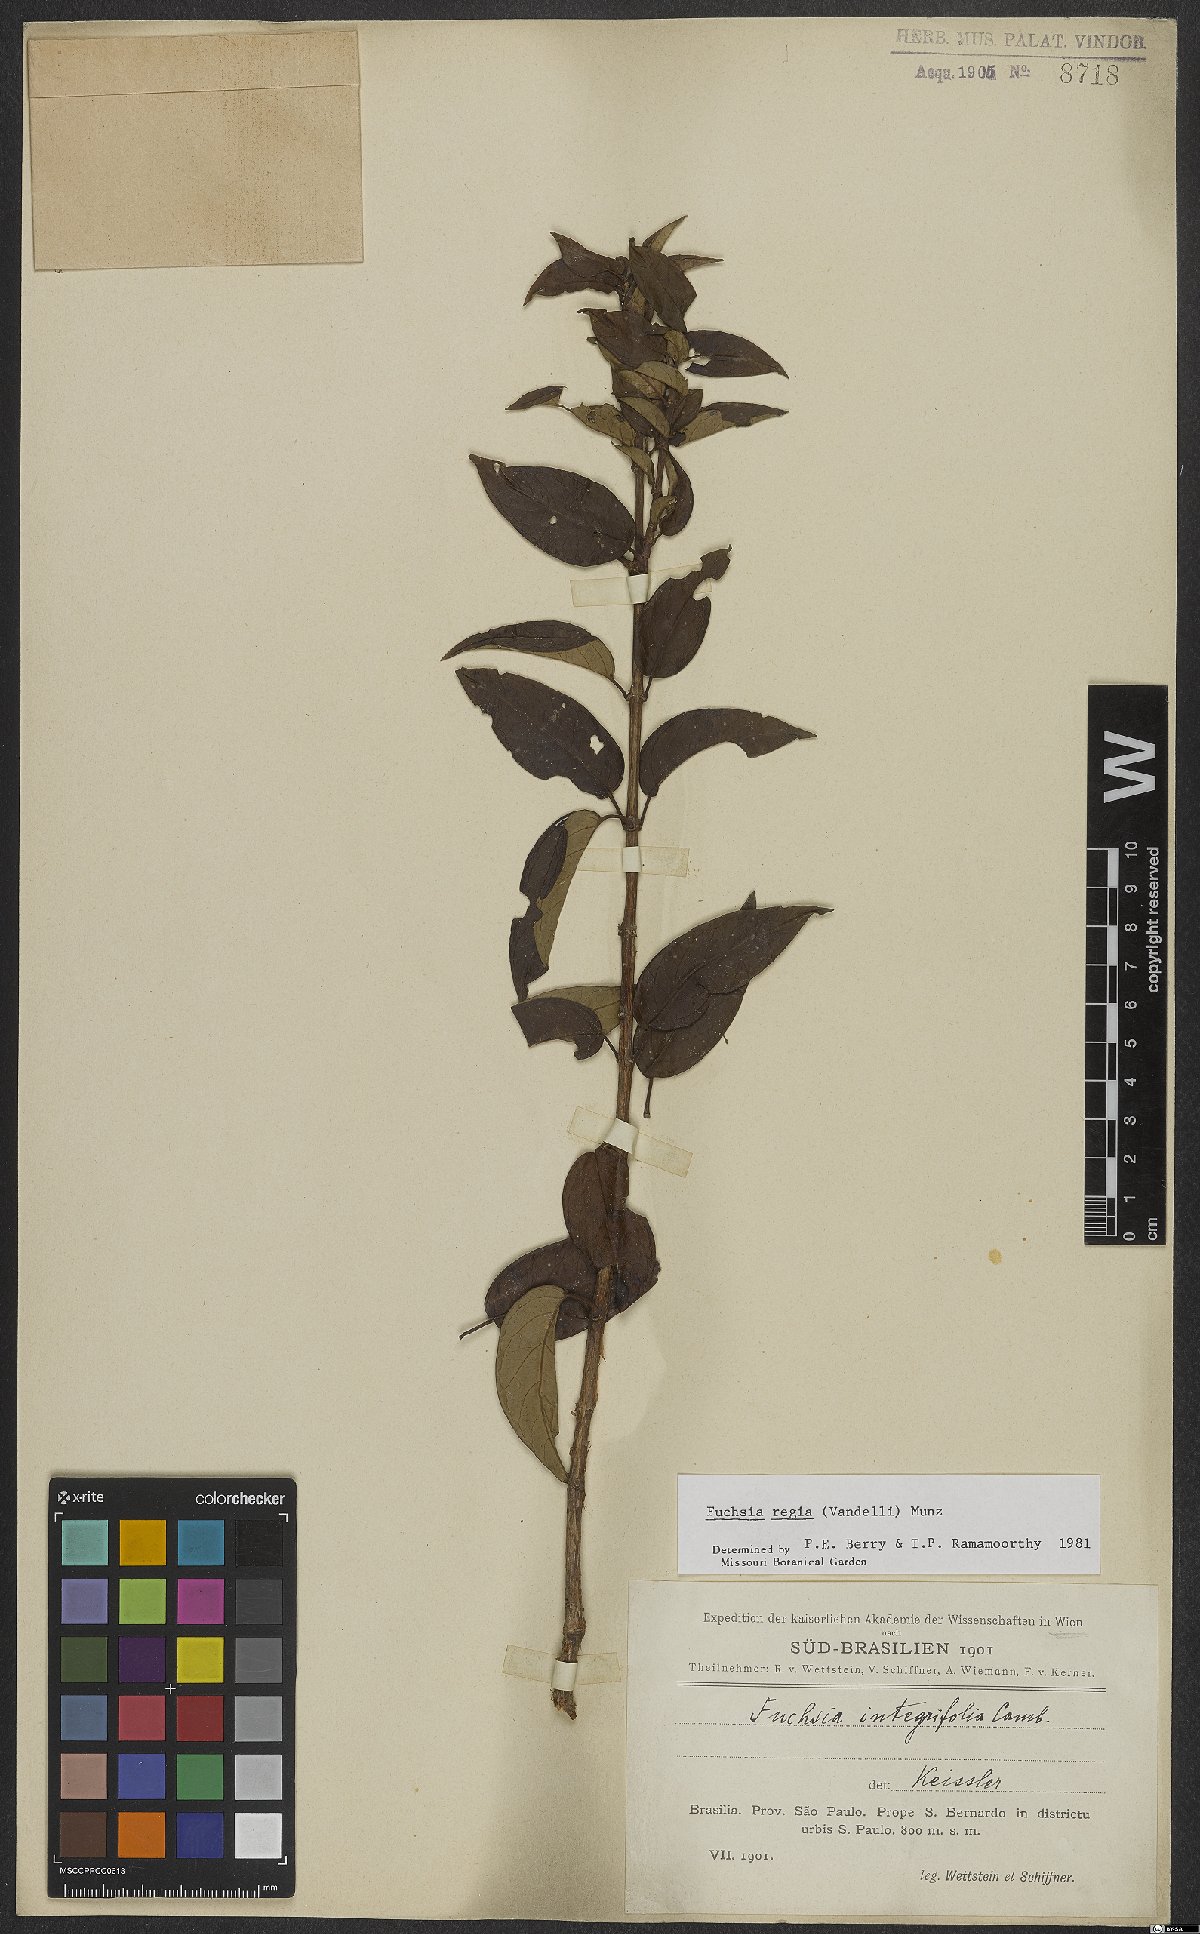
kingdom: Plantae
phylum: Tracheophyta
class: Magnoliopsida
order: Myrtales
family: Onagraceae
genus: Fuchsia
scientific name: Fuchsia regia
